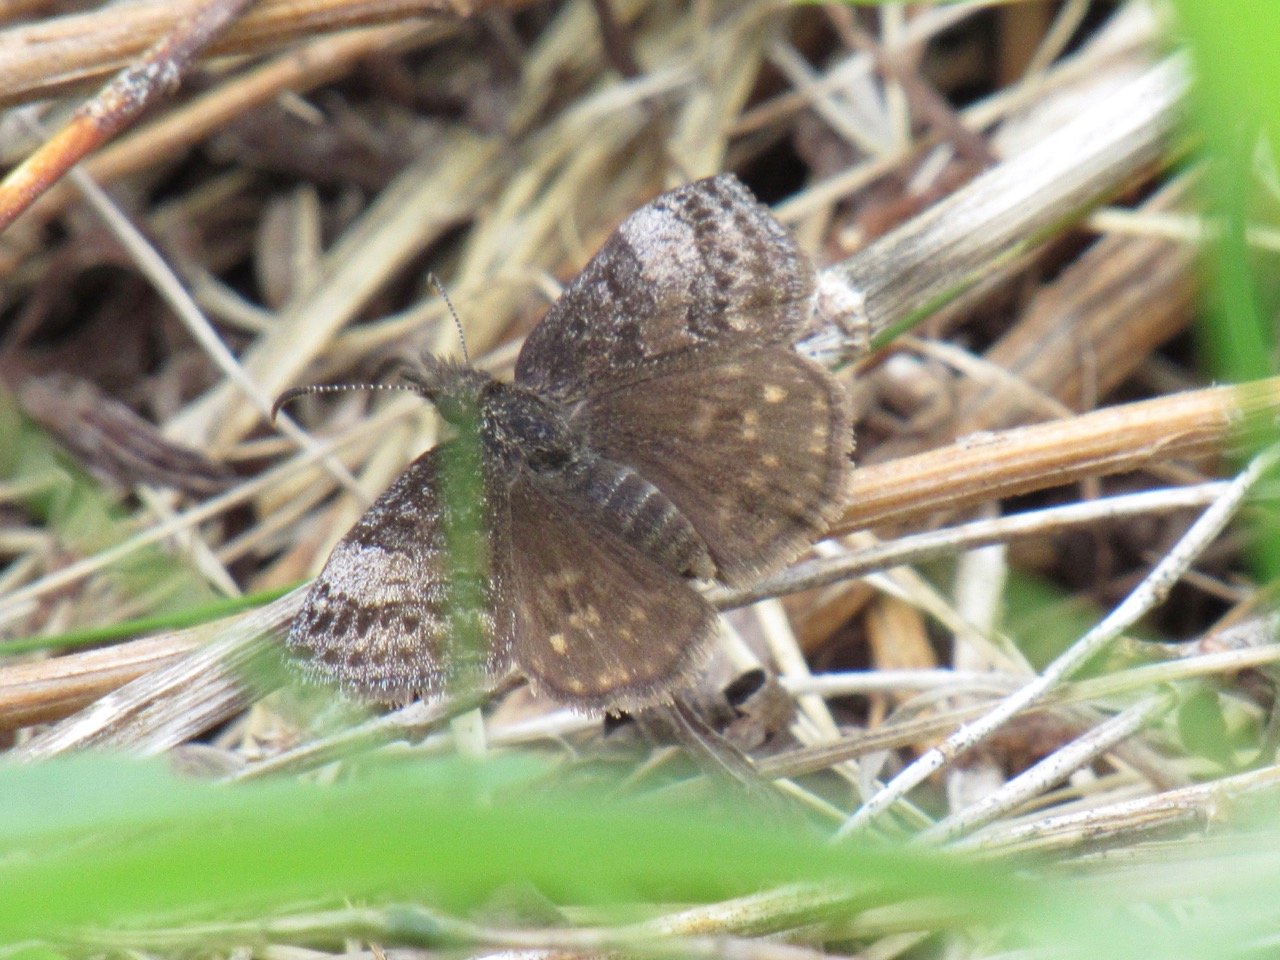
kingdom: Animalia
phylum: Arthropoda
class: Insecta
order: Lepidoptera
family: Hesperiidae
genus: Erynnis
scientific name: Erynnis icelus
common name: Dreamy Duskywing
